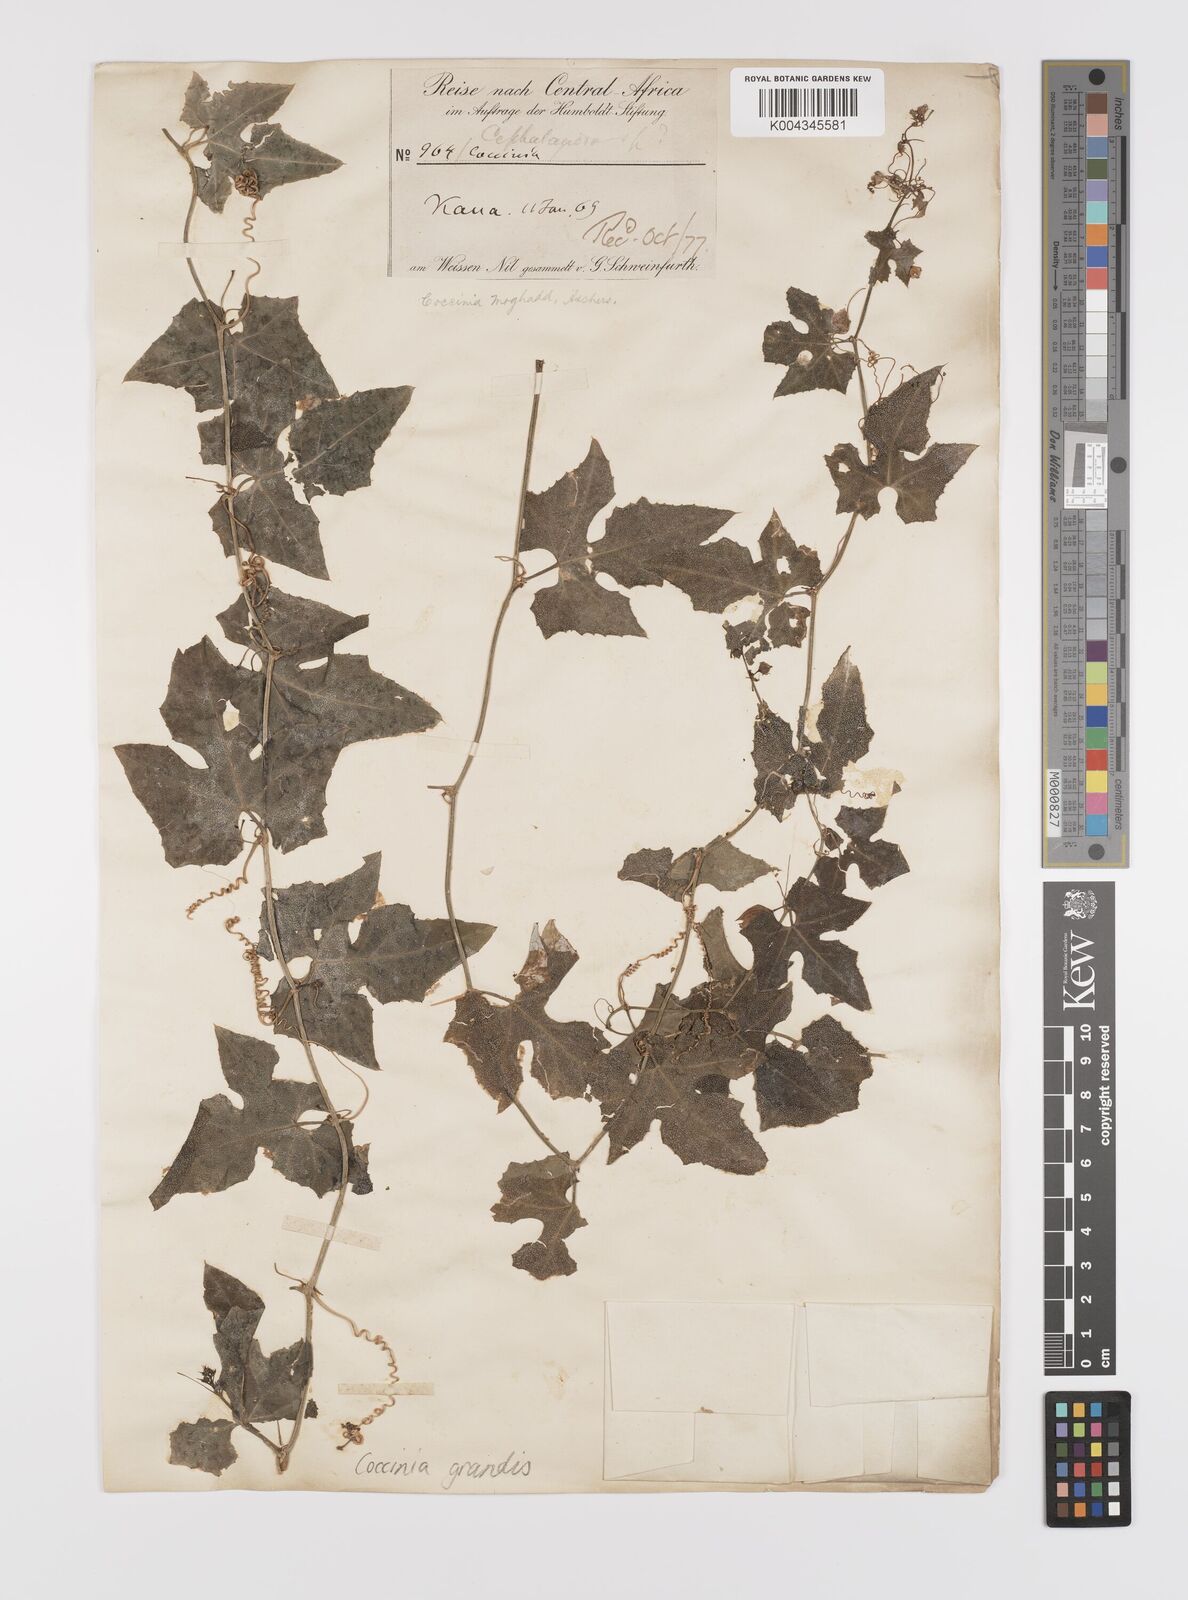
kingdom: Plantae
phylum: Tracheophyta
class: Magnoliopsida
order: Cucurbitales
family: Cucurbitaceae
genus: Coccinia
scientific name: Coccinia grandis
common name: Ivy gourd
